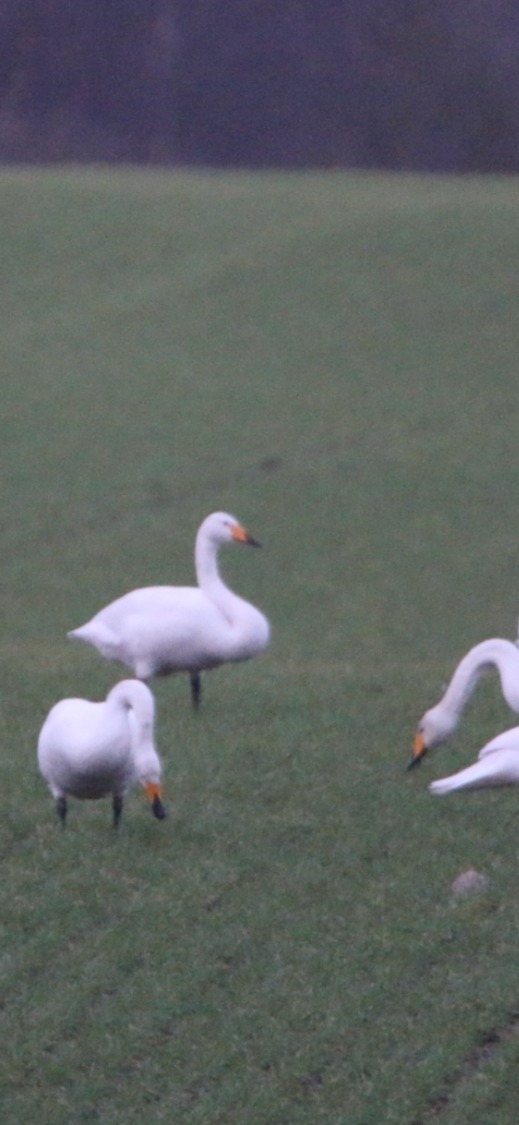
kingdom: Animalia
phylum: Chordata
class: Aves
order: Anseriformes
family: Anatidae
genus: Cygnus
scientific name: Cygnus cygnus
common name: Sangsvane
